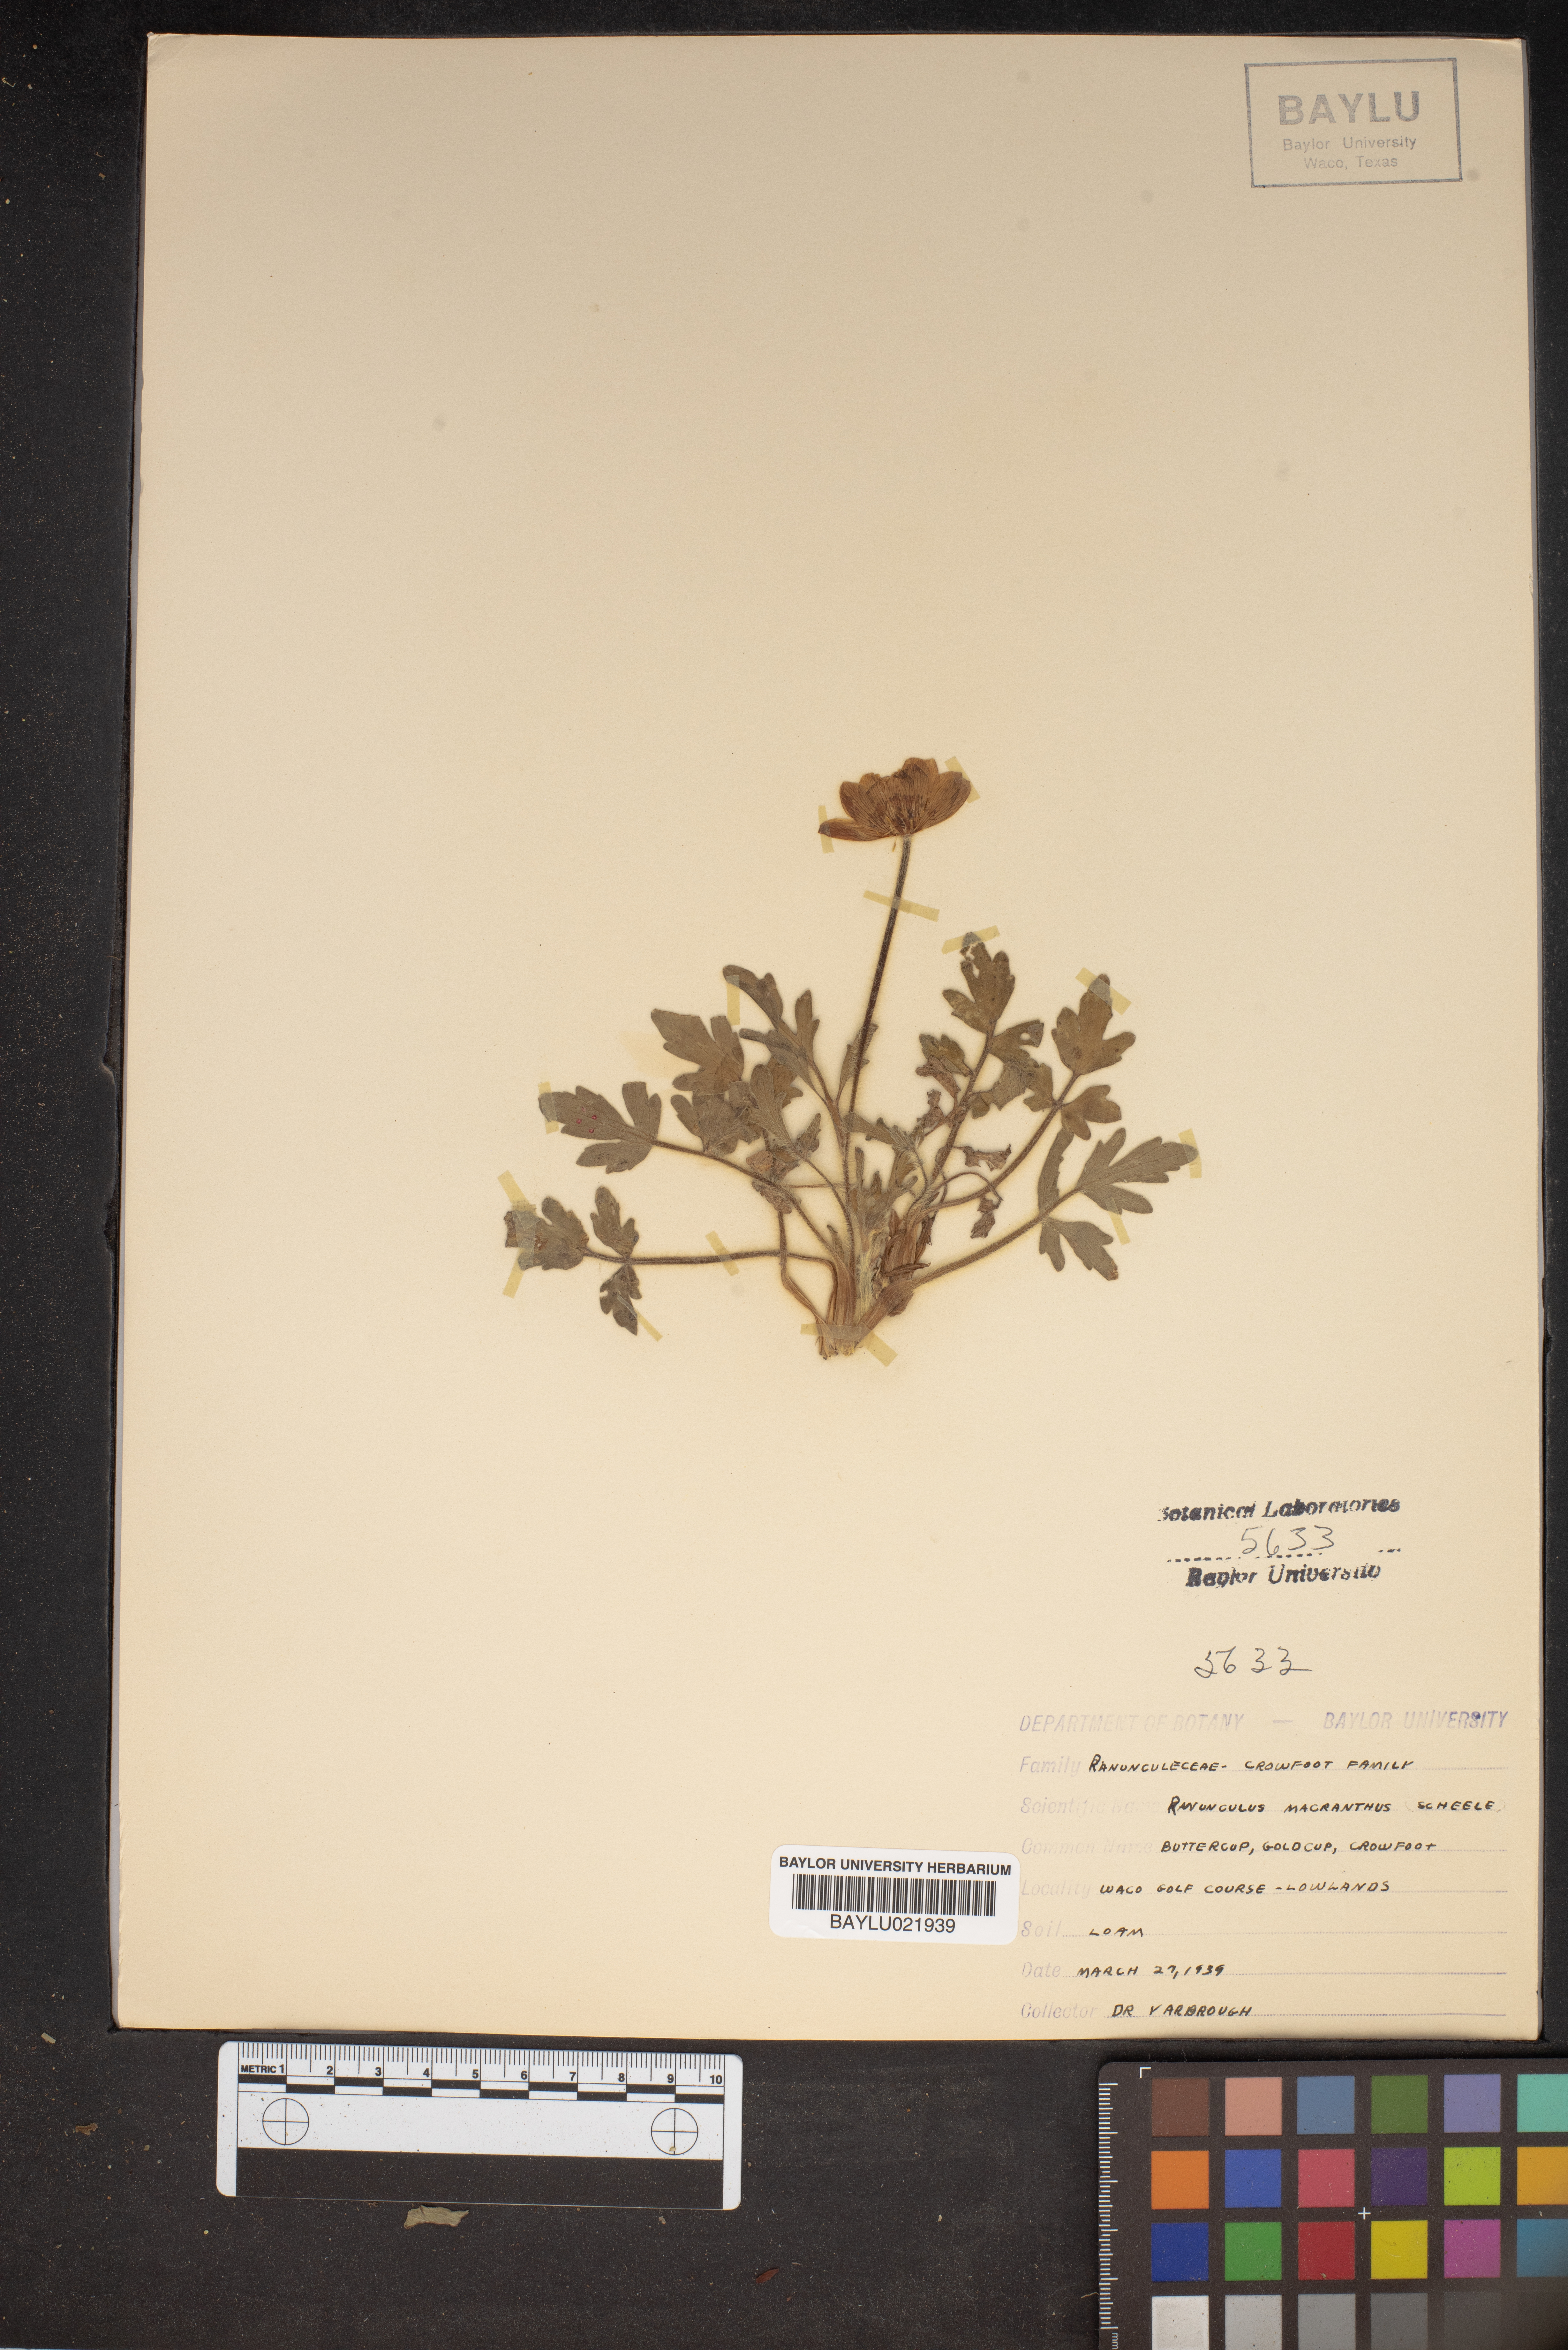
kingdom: Plantae
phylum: Tracheophyta
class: Magnoliopsida
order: Ranunculales
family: Ranunculaceae
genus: Ranunculus
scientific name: Ranunculus macranthus
